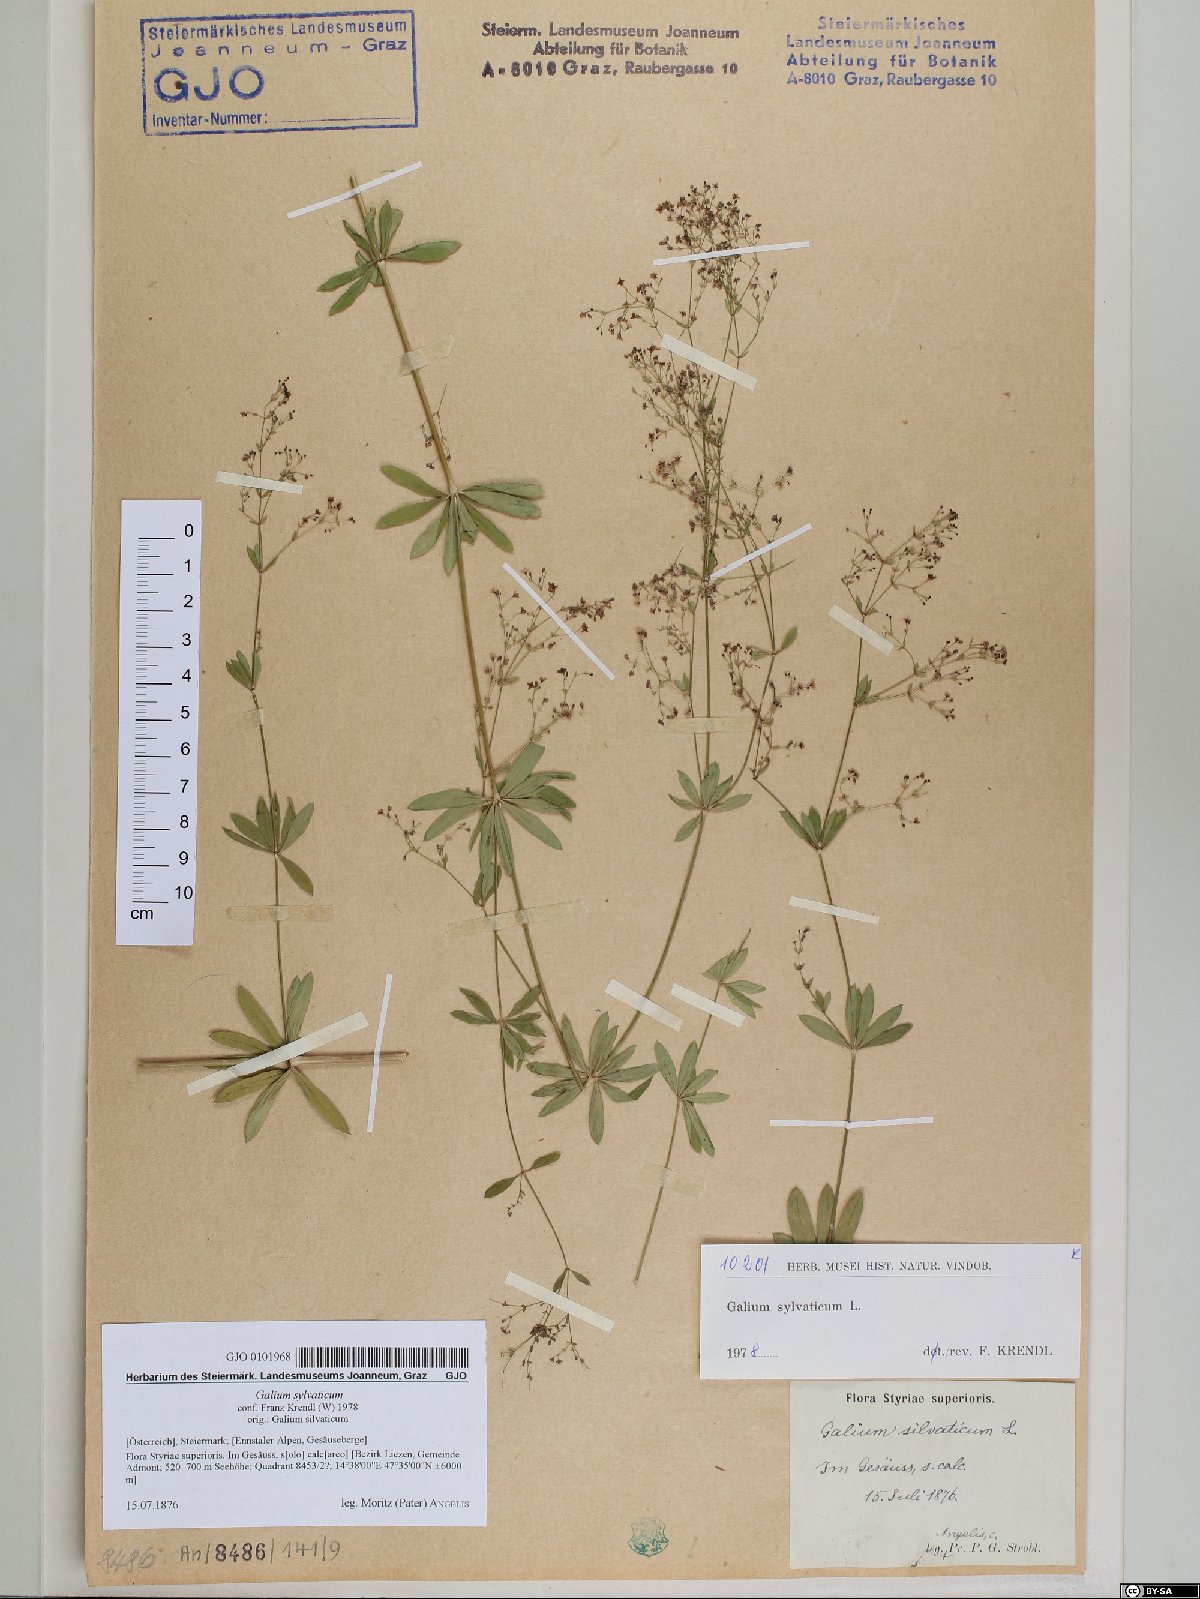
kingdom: Plantae
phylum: Tracheophyta
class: Magnoliopsida
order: Gentianales
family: Rubiaceae
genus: Galium
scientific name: Galium sylvaticum
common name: Wood bedstraw
